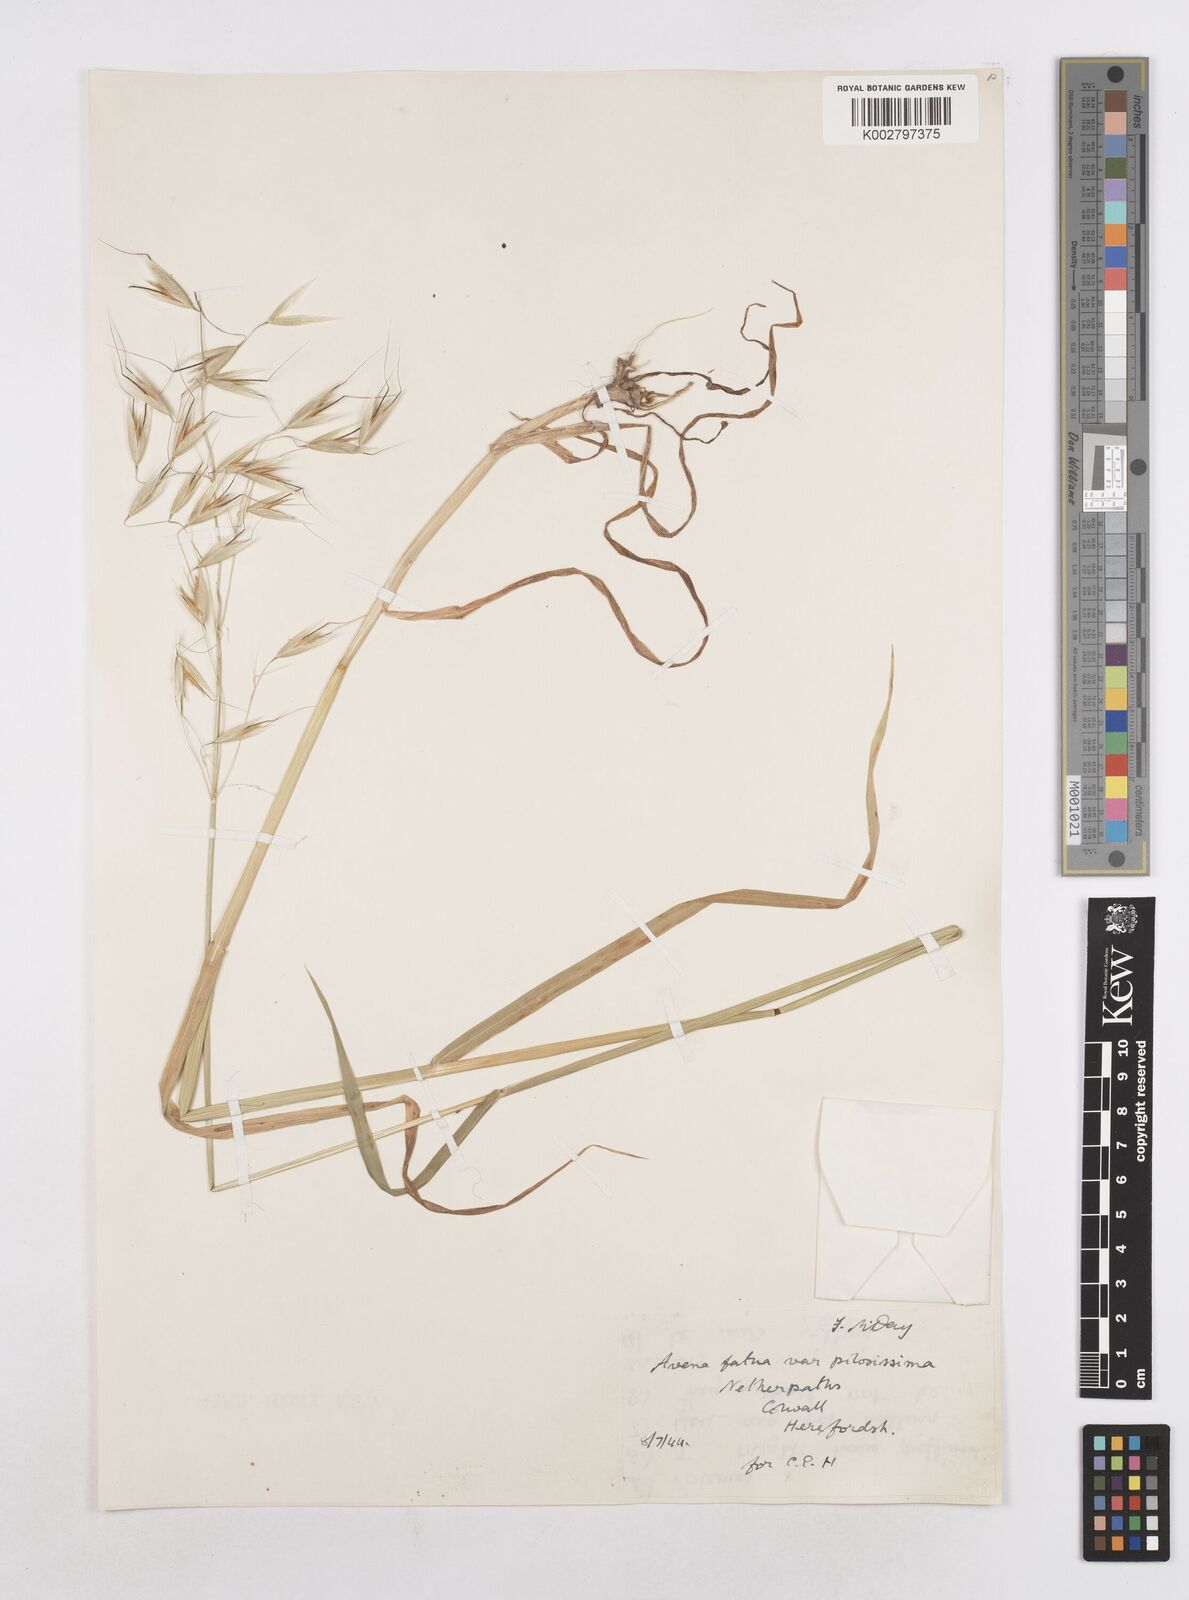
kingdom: Plantae
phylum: Tracheophyta
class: Liliopsida
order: Poales
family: Poaceae
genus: Avena
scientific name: Avena fatua
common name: Wild oat
